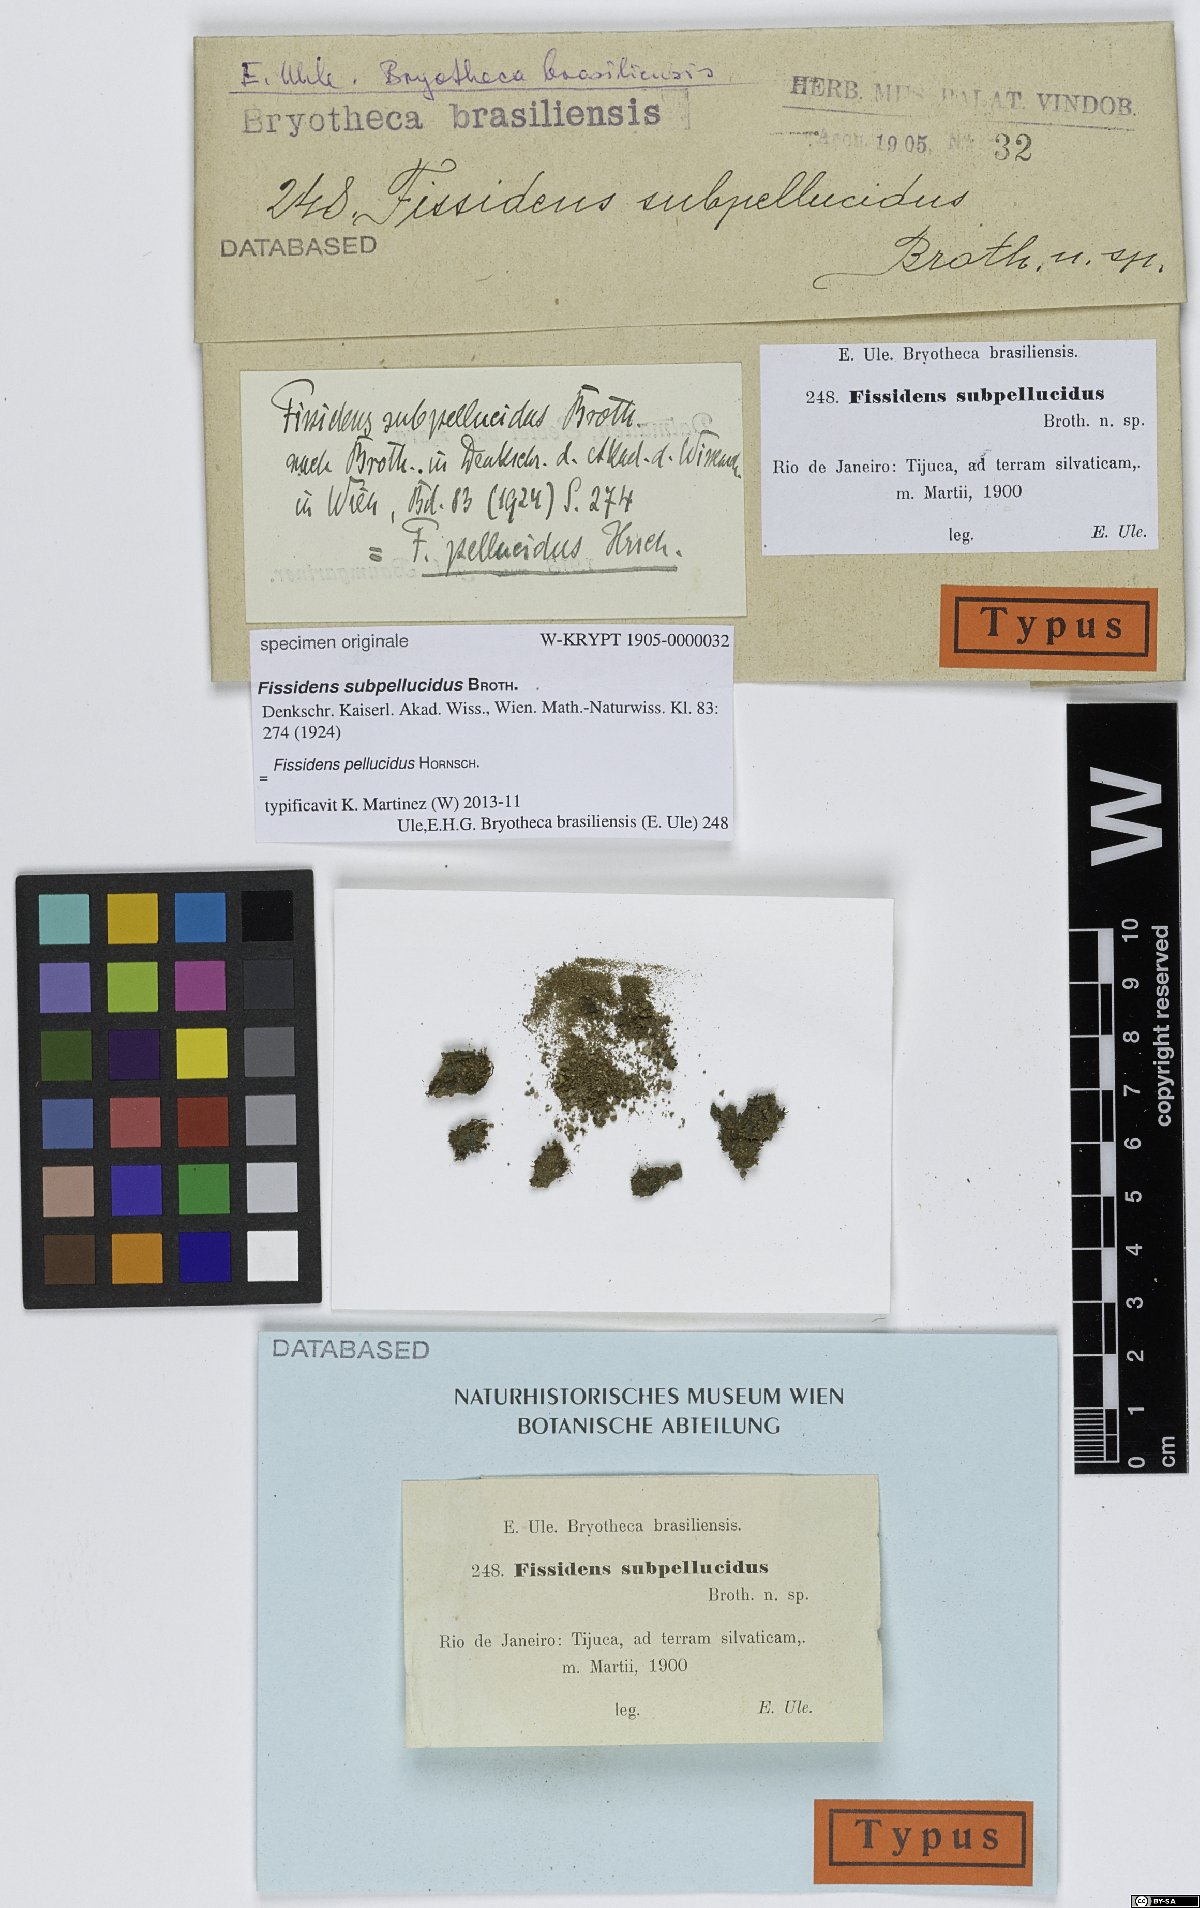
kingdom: Plantae
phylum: Bryophyta
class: Bryopsida
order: Dicranales
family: Fissidentaceae
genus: Fissidens
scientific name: Fissidens
